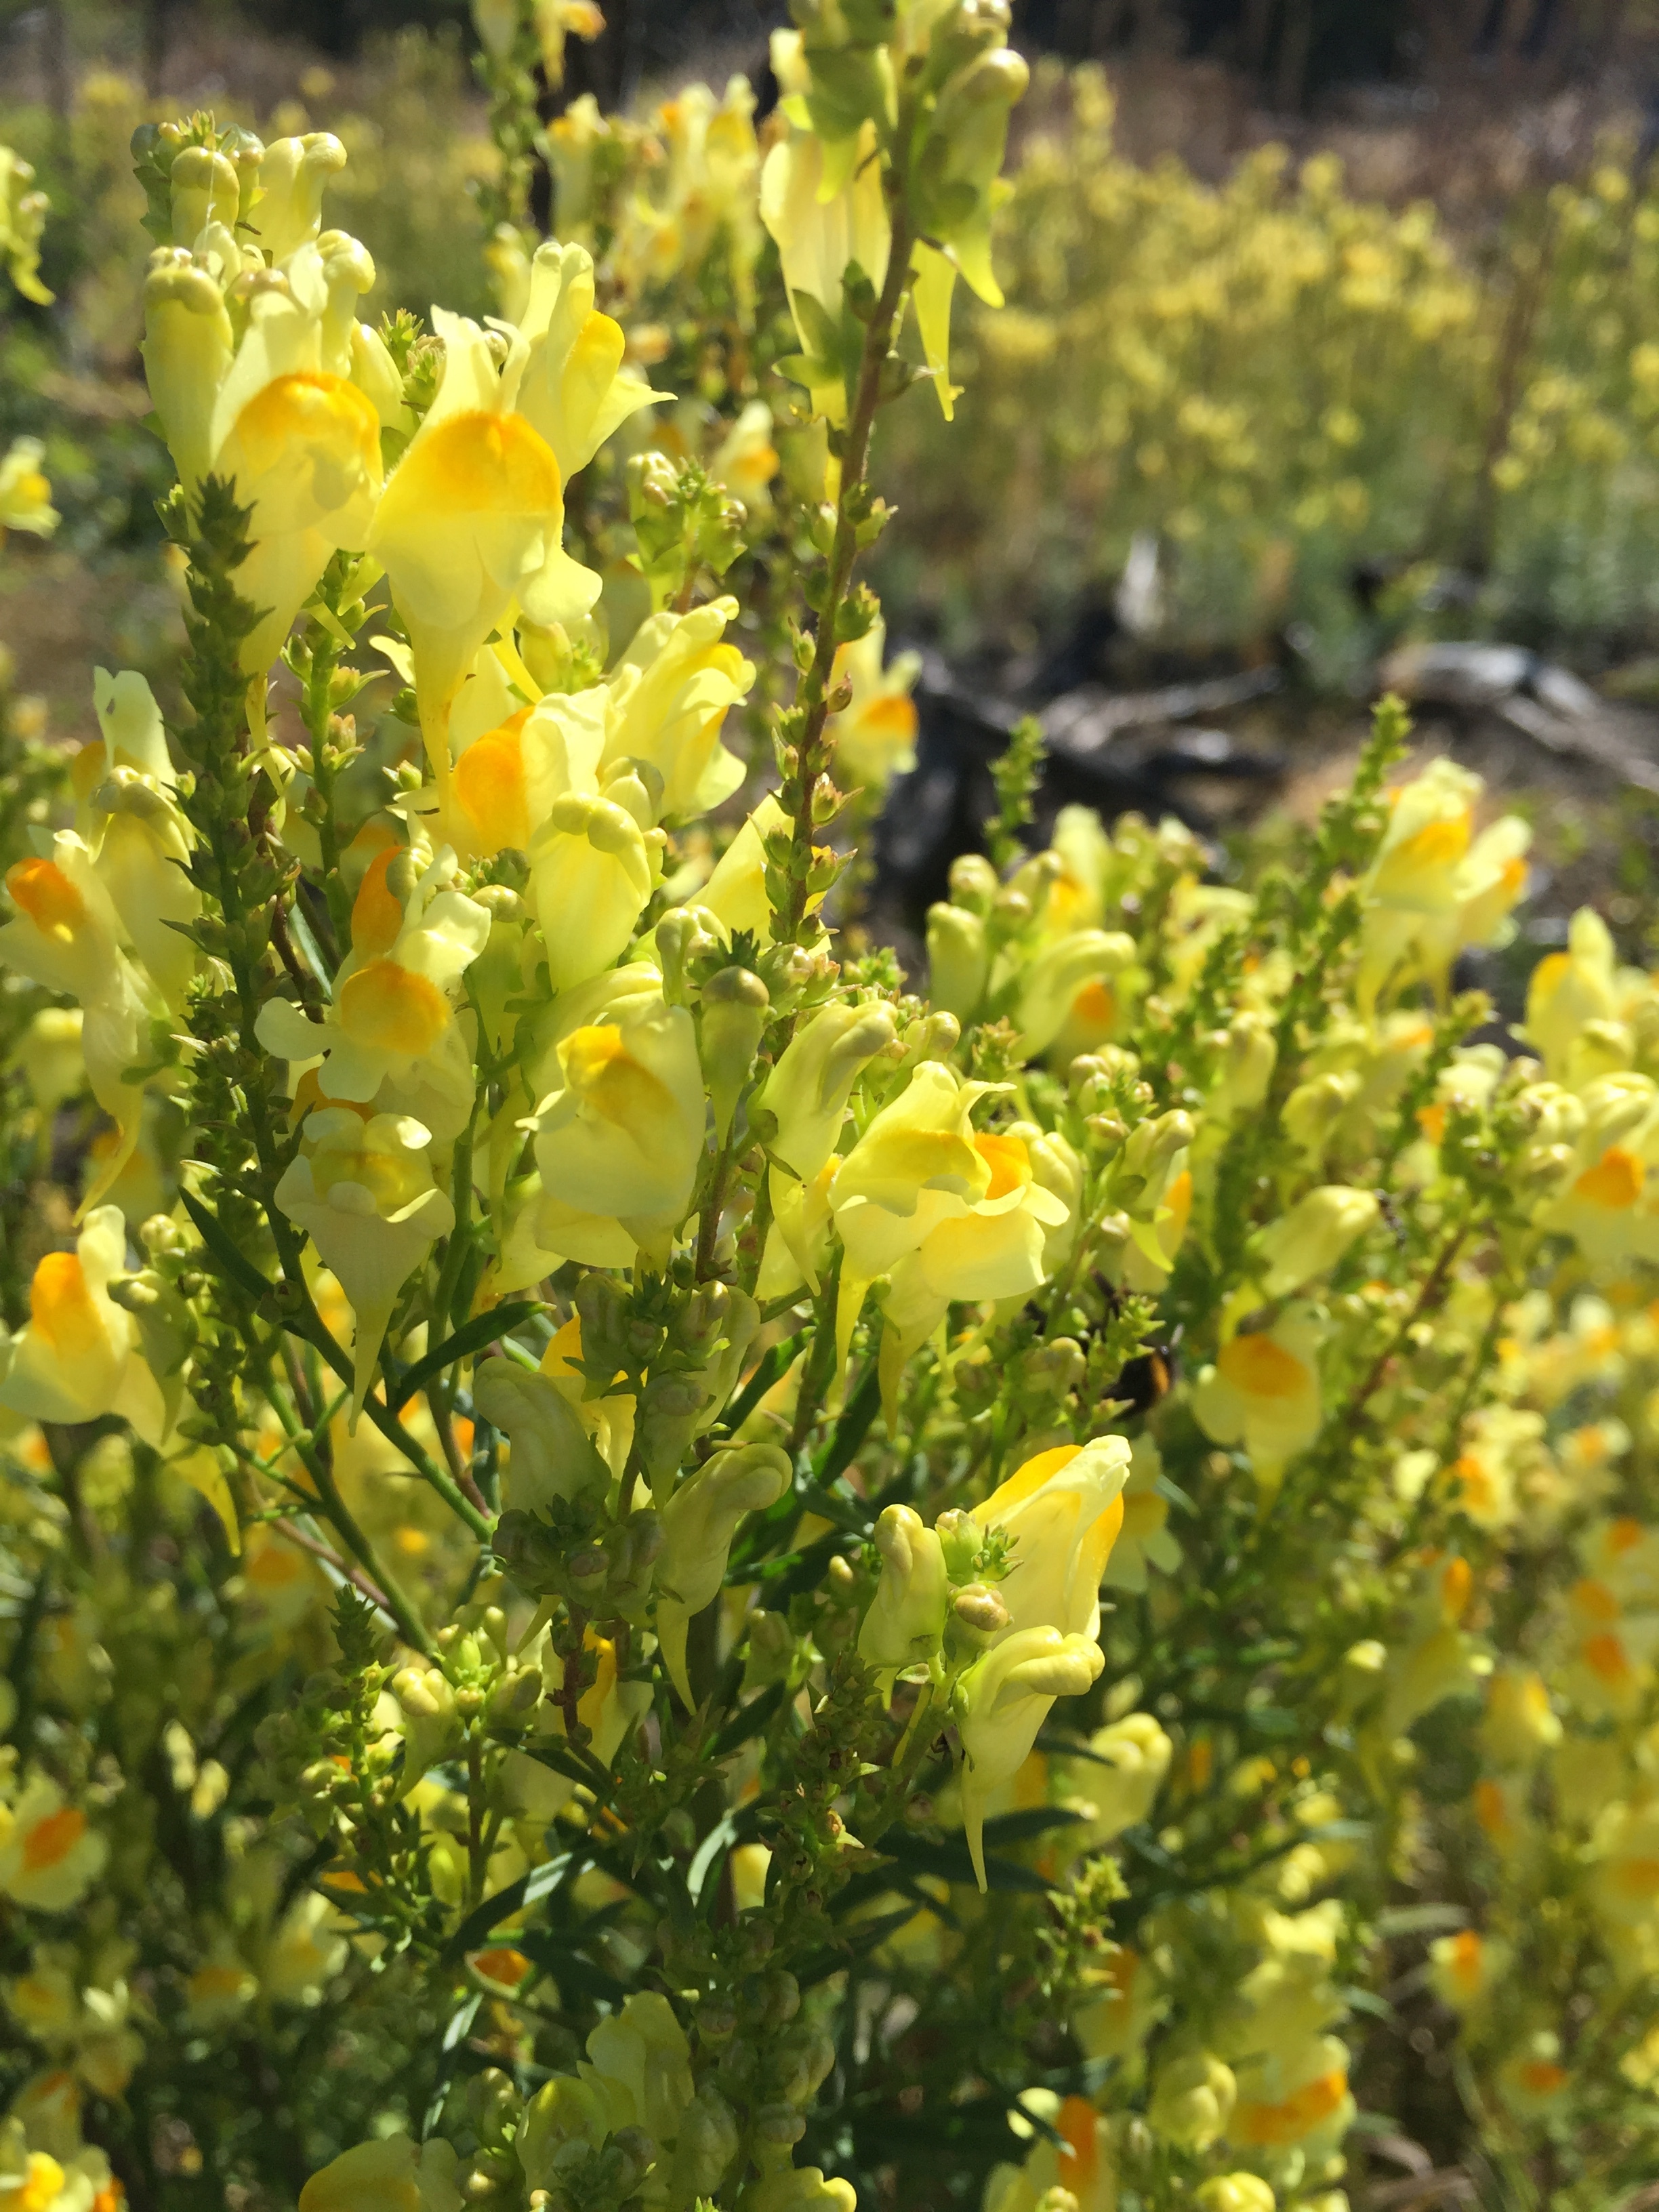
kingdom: Plantae
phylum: Tracheophyta
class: Magnoliopsida
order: Lamiales
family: Plantaginaceae
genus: Linaria
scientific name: Linaria vulgaris
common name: Butter and eggs
